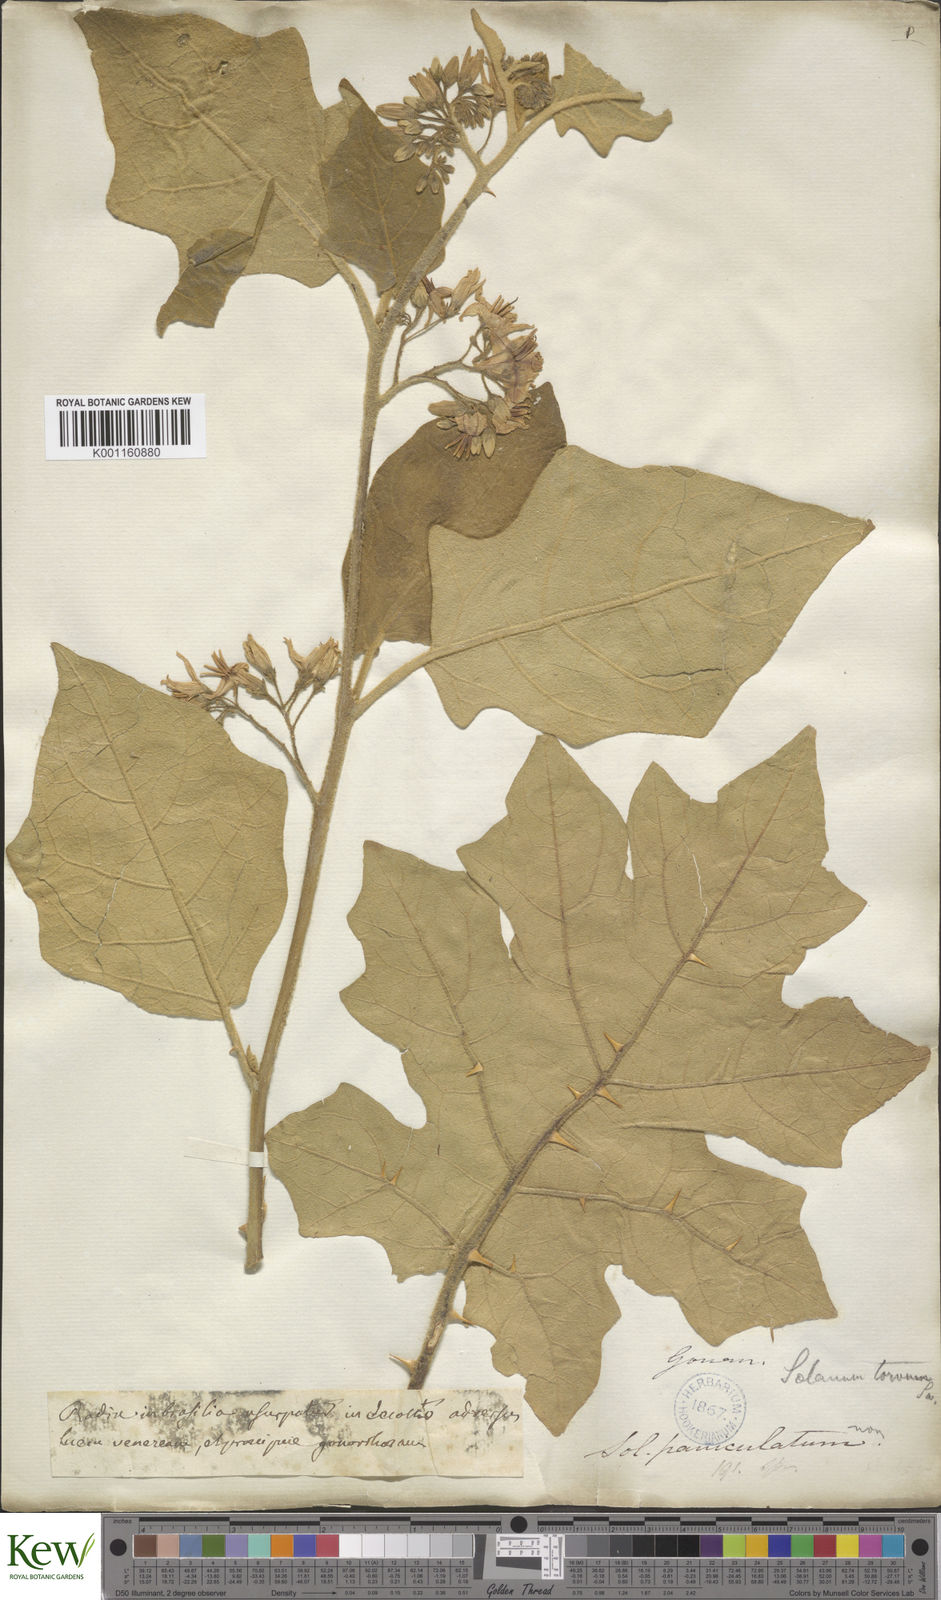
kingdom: Plantae
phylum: Tracheophyta
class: Magnoliopsida
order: Solanales
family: Solanaceae
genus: Solanum
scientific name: Solanum torvum
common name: Turkey berry
